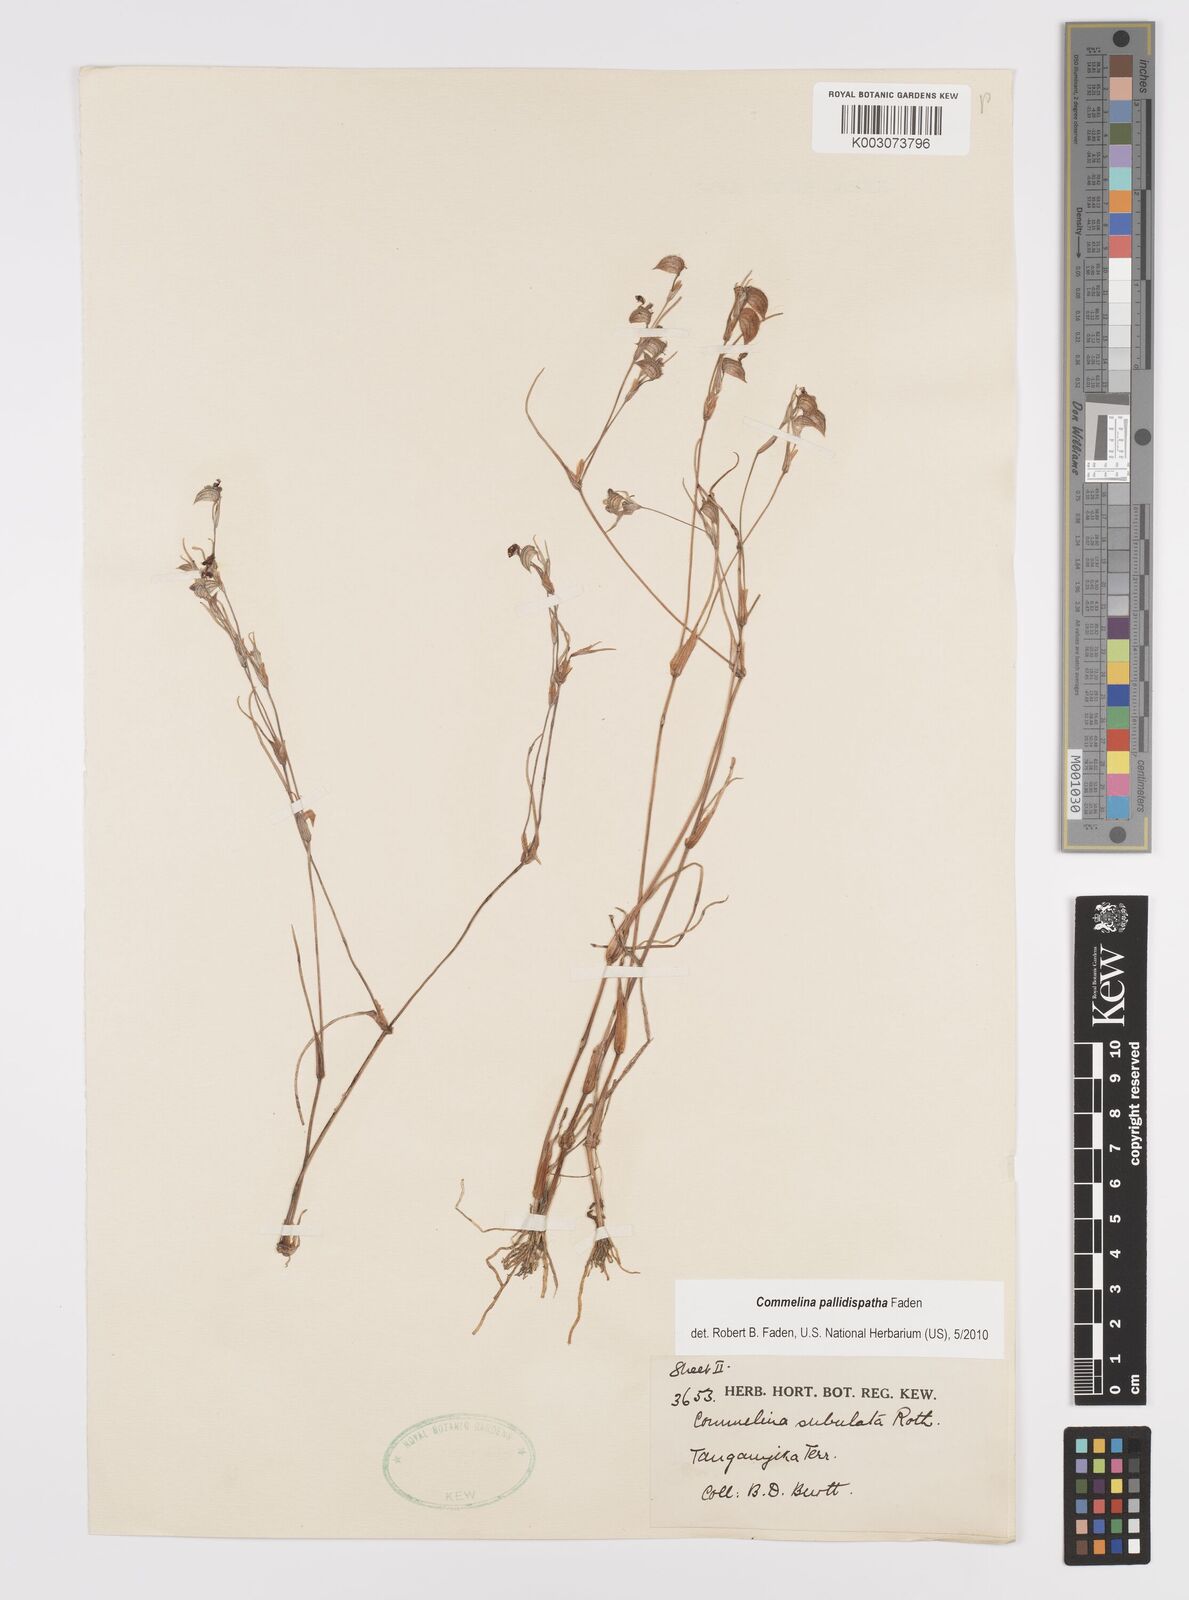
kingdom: Plantae
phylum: Tracheophyta
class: Liliopsida
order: Commelinales
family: Commelinaceae
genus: Commelina
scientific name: Commelina pallidispatha
